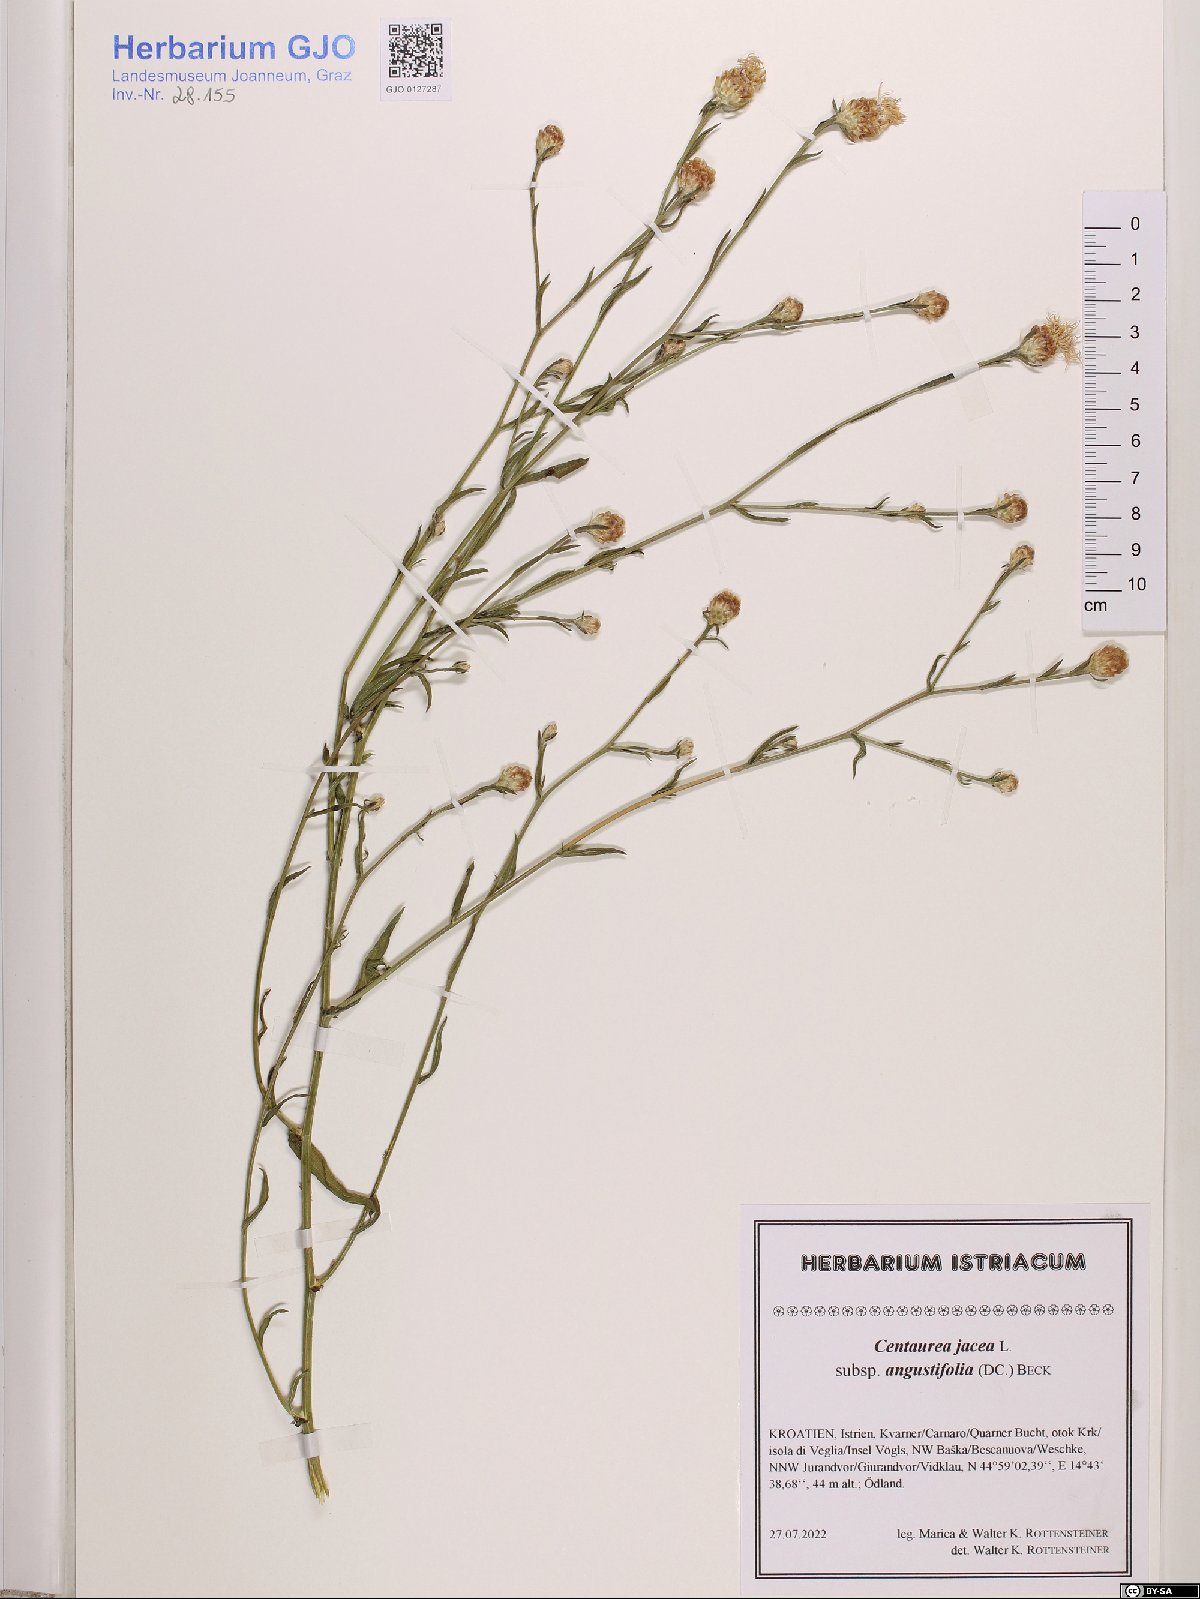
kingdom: Plantae
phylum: Tracheophyta
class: Magnoliopsida
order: Asterales
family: Asteraceae
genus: Centaurea
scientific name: Centaurea pannonica
